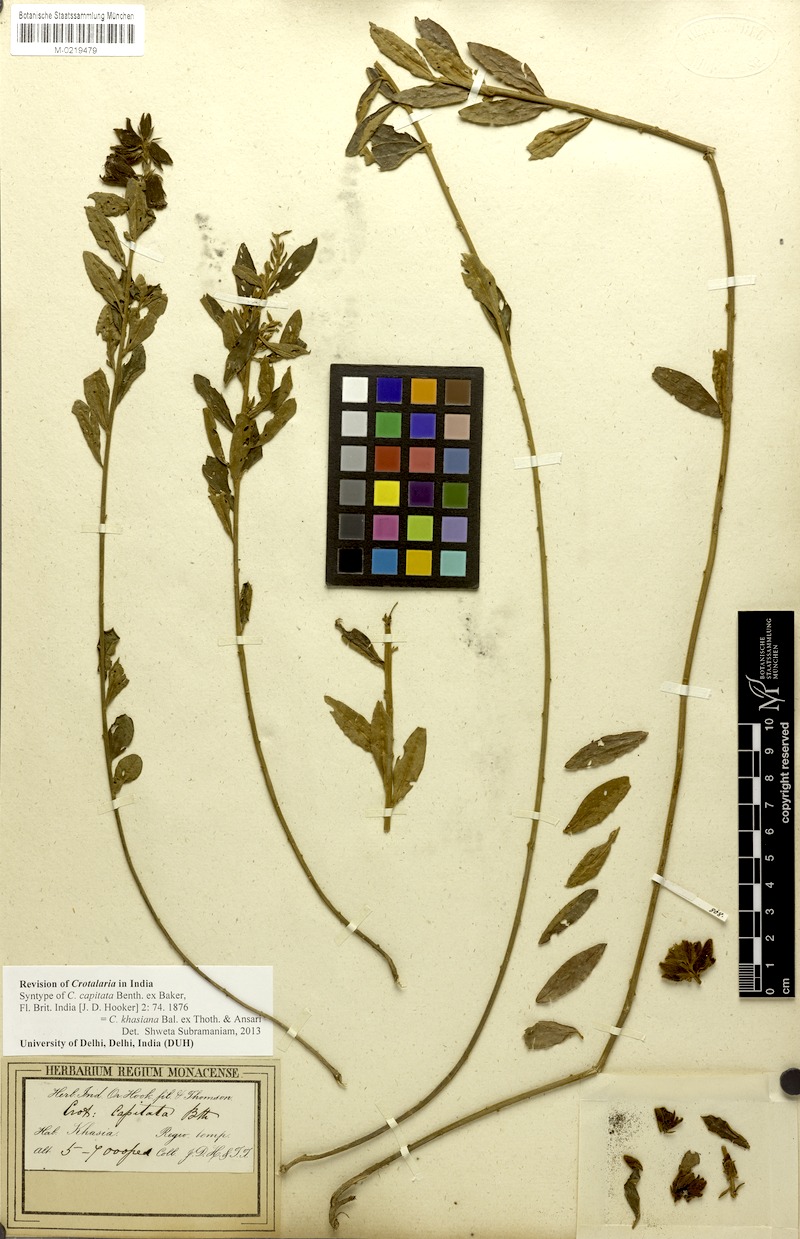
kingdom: Plantae
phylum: Tracheophyta
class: Magnoliopsida
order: Fabales
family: Fabaceae
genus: Crotalaria
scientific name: Crotalaria khasiana
